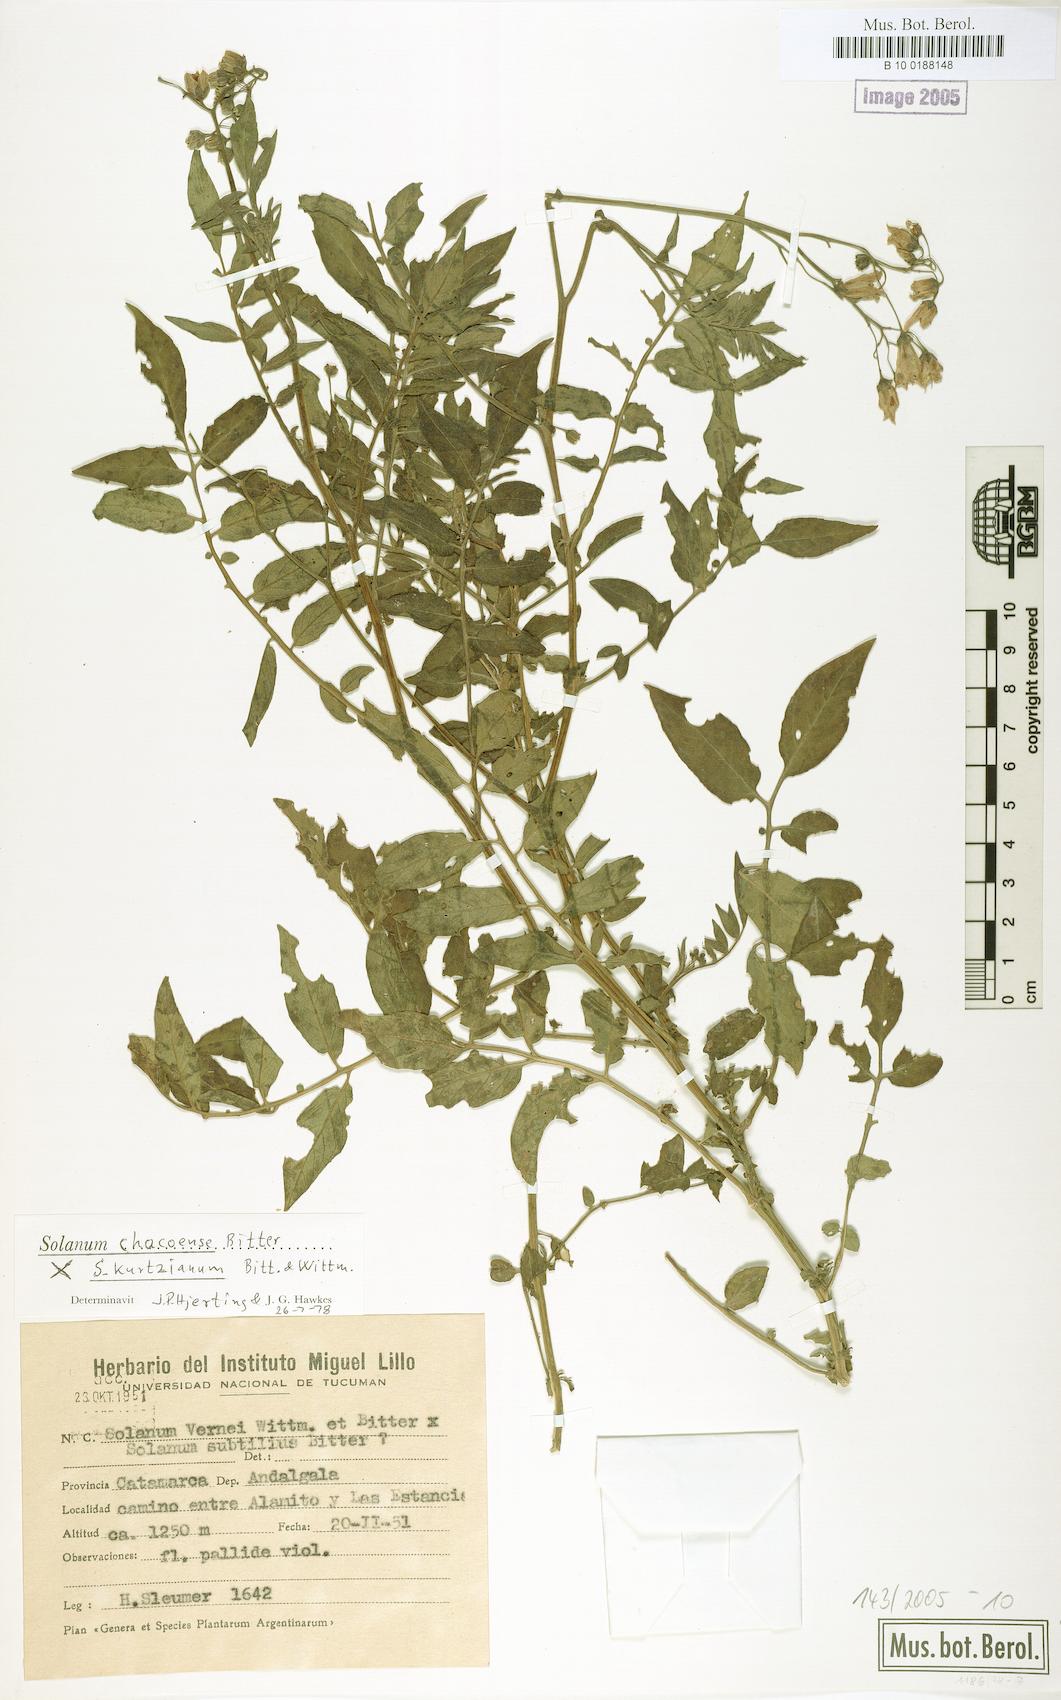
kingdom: Plantae
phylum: Tracheophyta
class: Magnoliopsida
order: Solanales
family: Solanaceae
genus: Solanum
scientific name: Solanum chacoense
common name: Chaco potato
